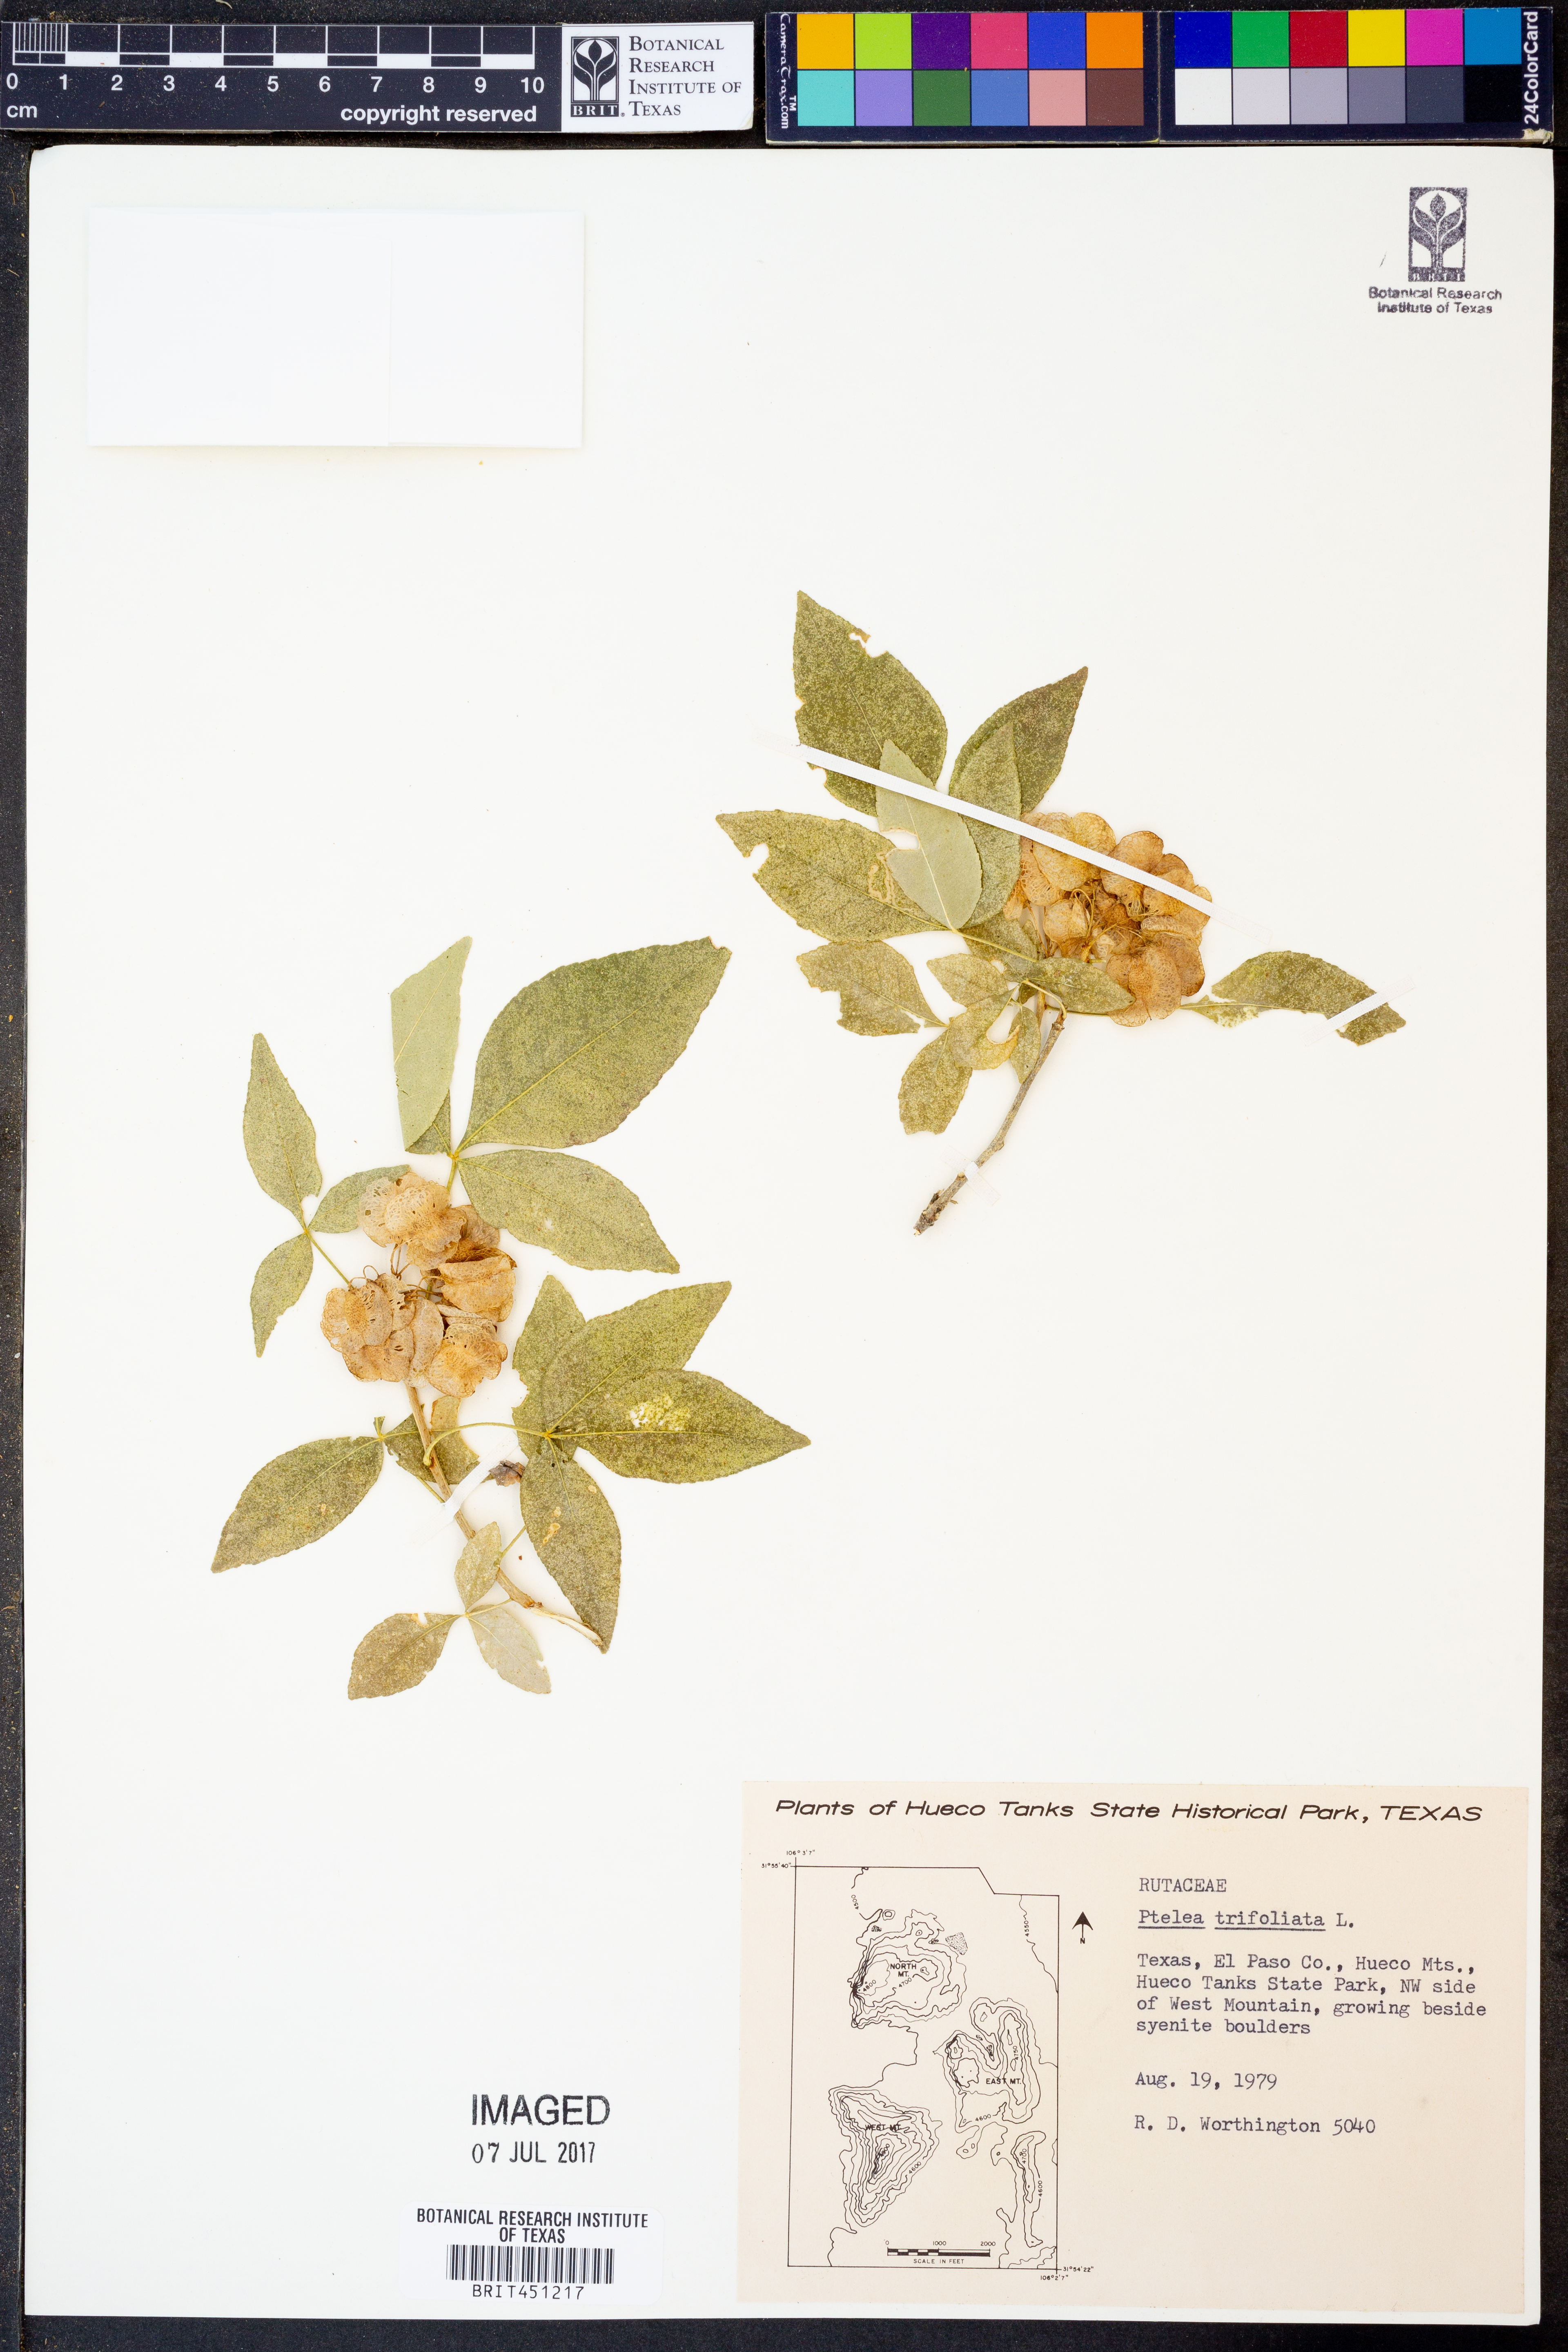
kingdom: Plantae
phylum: Tracheophyta
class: Magnoliopsida
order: Sapindales
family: Rutaceae
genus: Ptelea
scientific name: Ptelea trifoliata
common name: Common hop-tree
